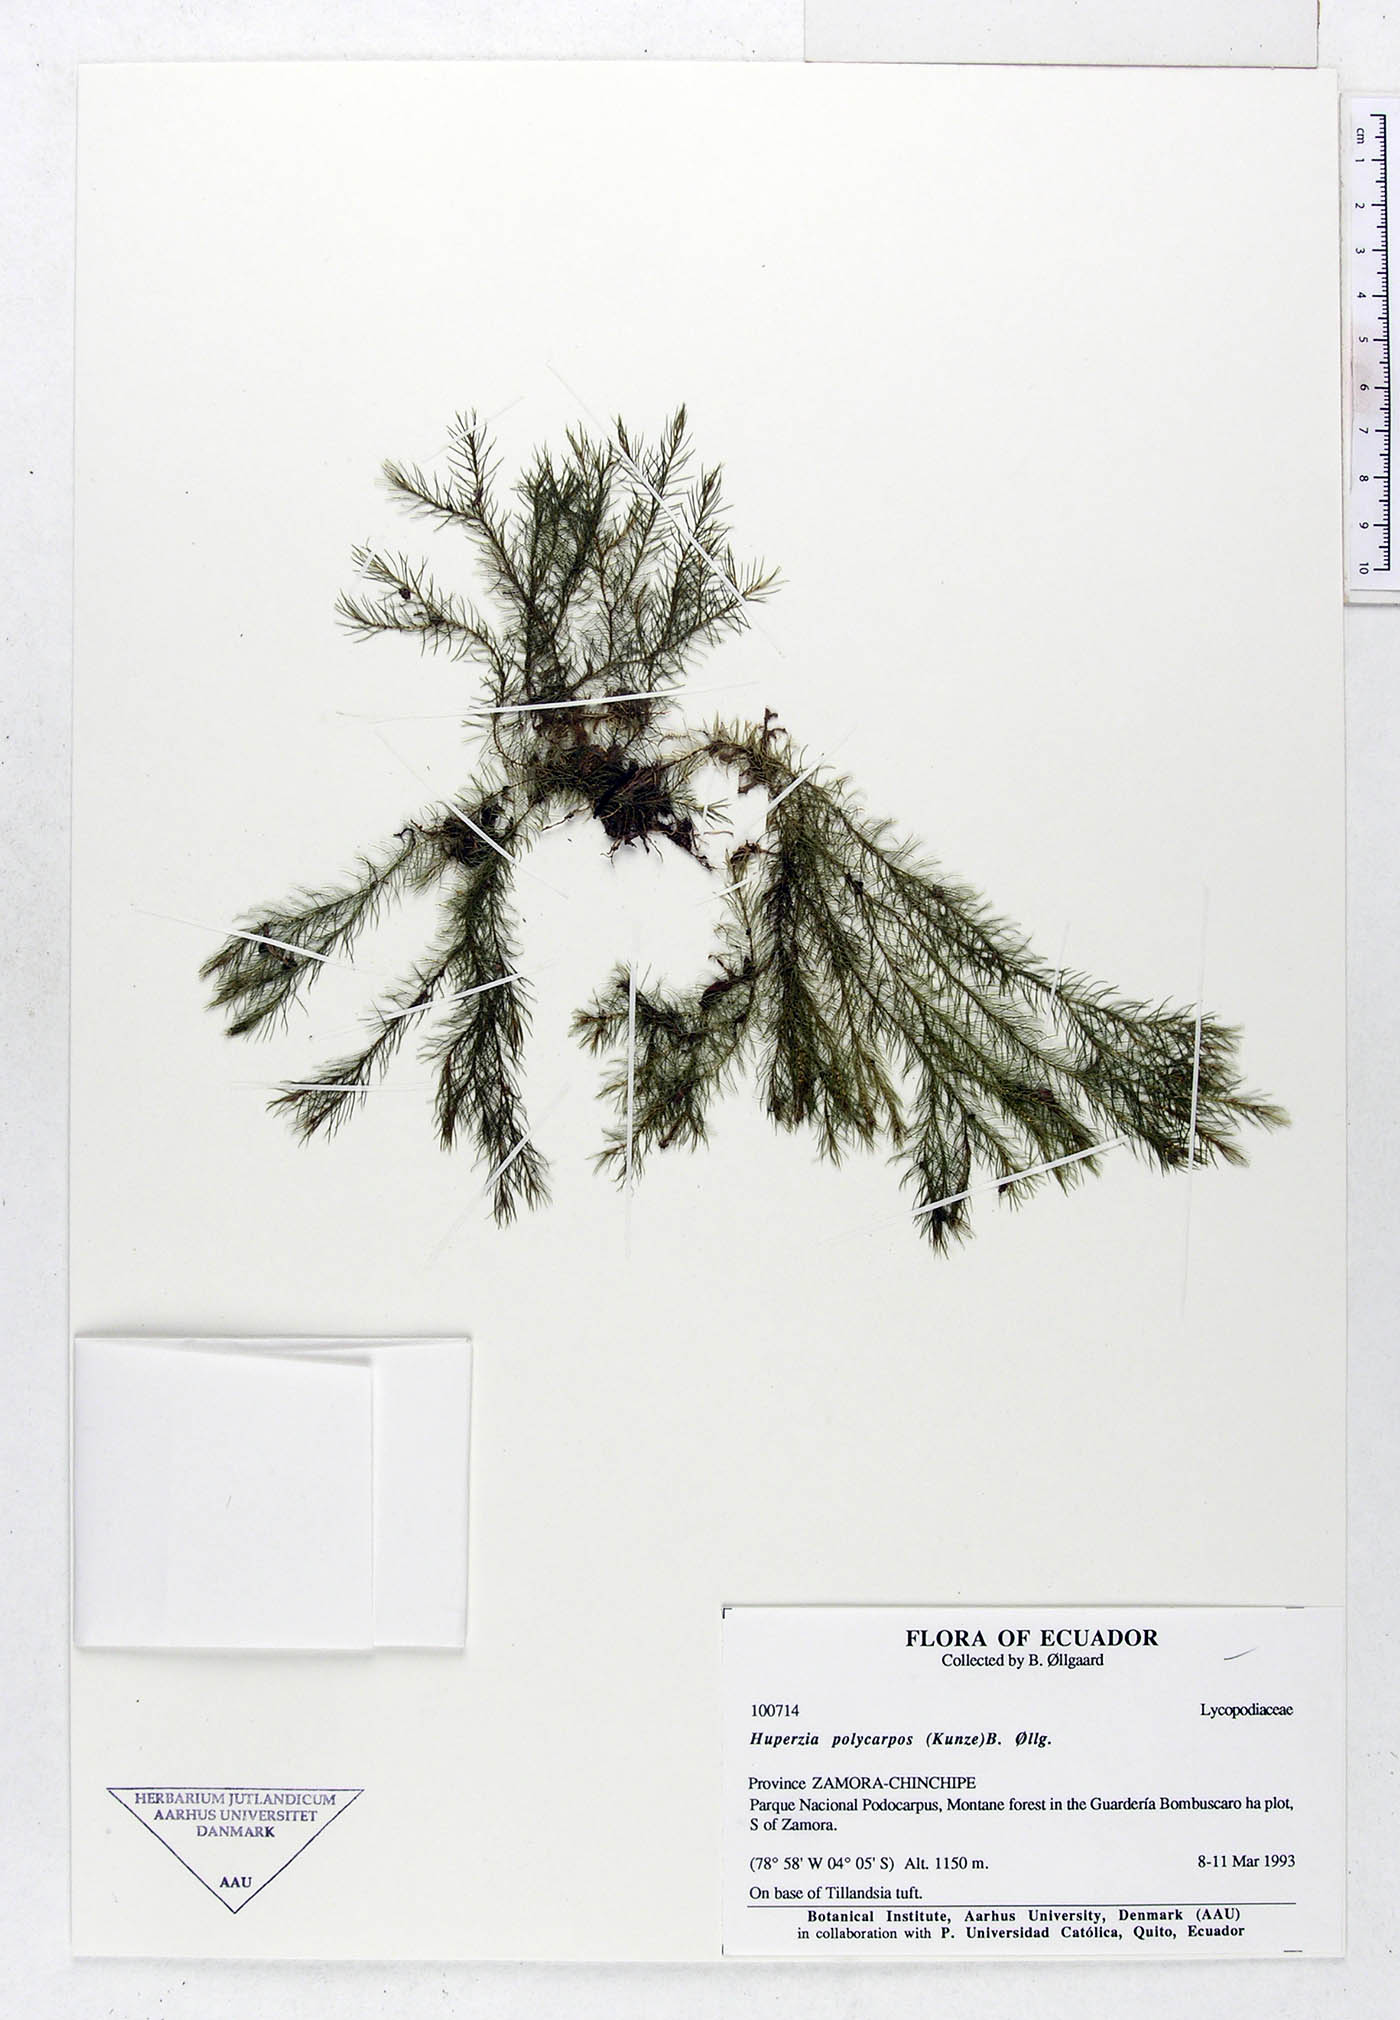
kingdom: Plantae
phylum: Tracheophyta
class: Lycopodiopsida
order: Lycopodiales
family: Lycopodiaceae
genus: Phlegmariurus
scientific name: Phlegmariurus polycarpos
